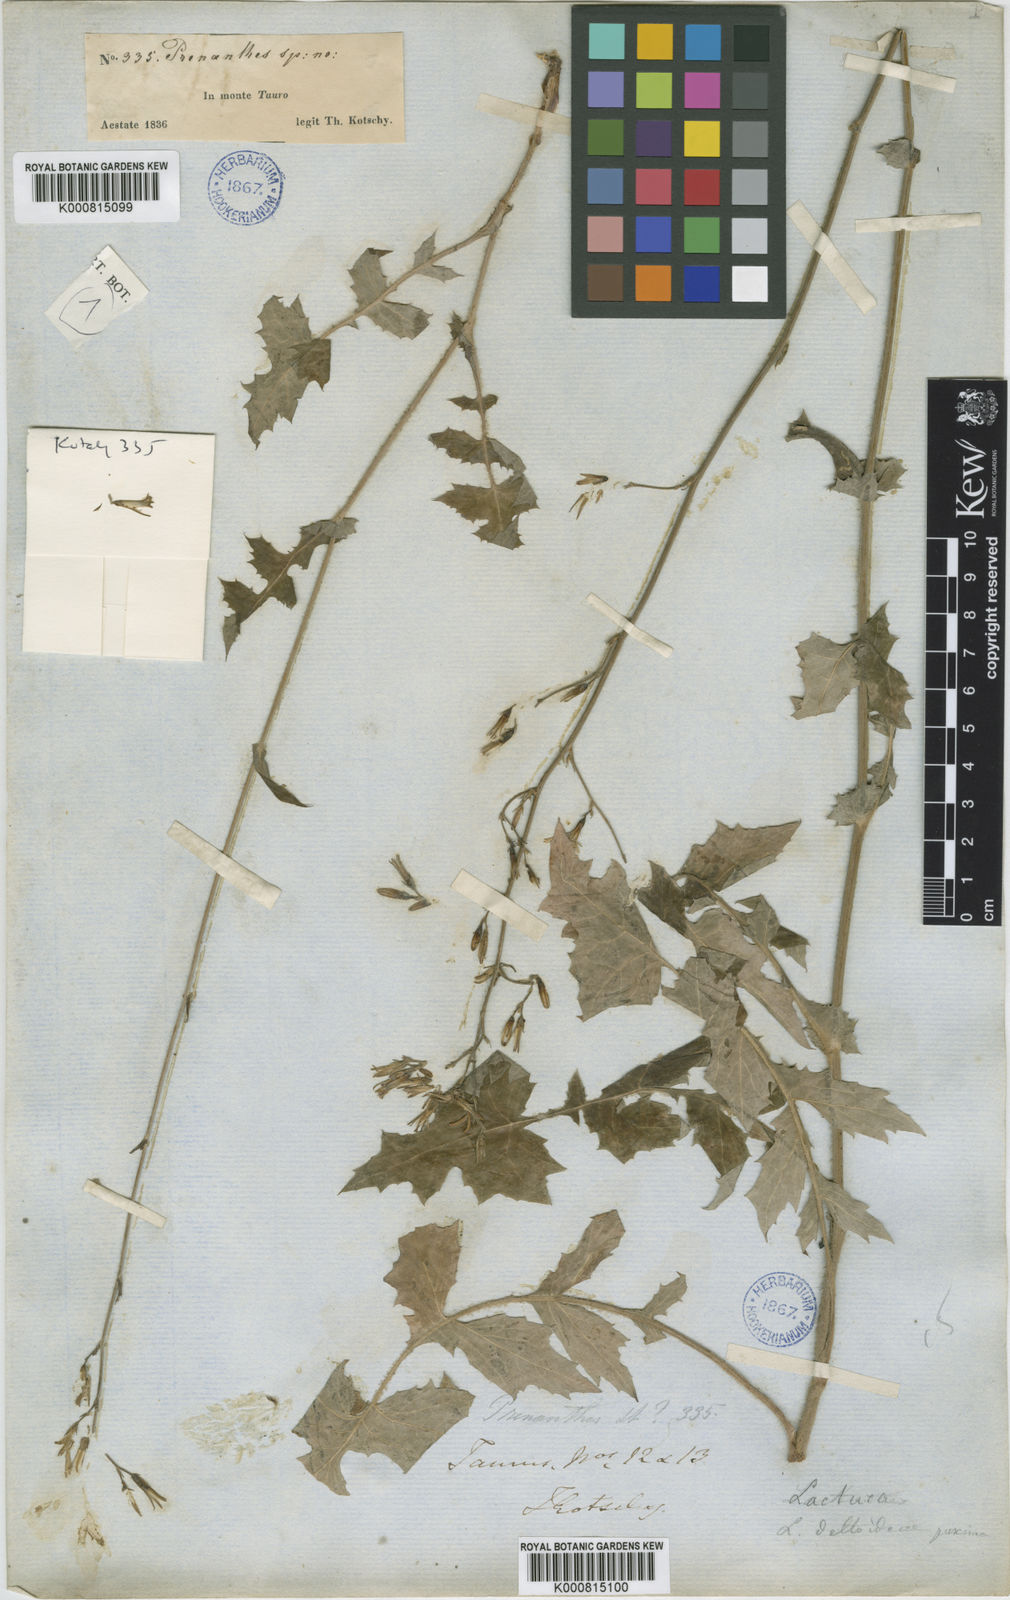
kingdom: Plantae
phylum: Tracheophyta
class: Magnoliopsida
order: Asterales
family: Asteraceae
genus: Lactuca
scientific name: Lactuca fenzlii
